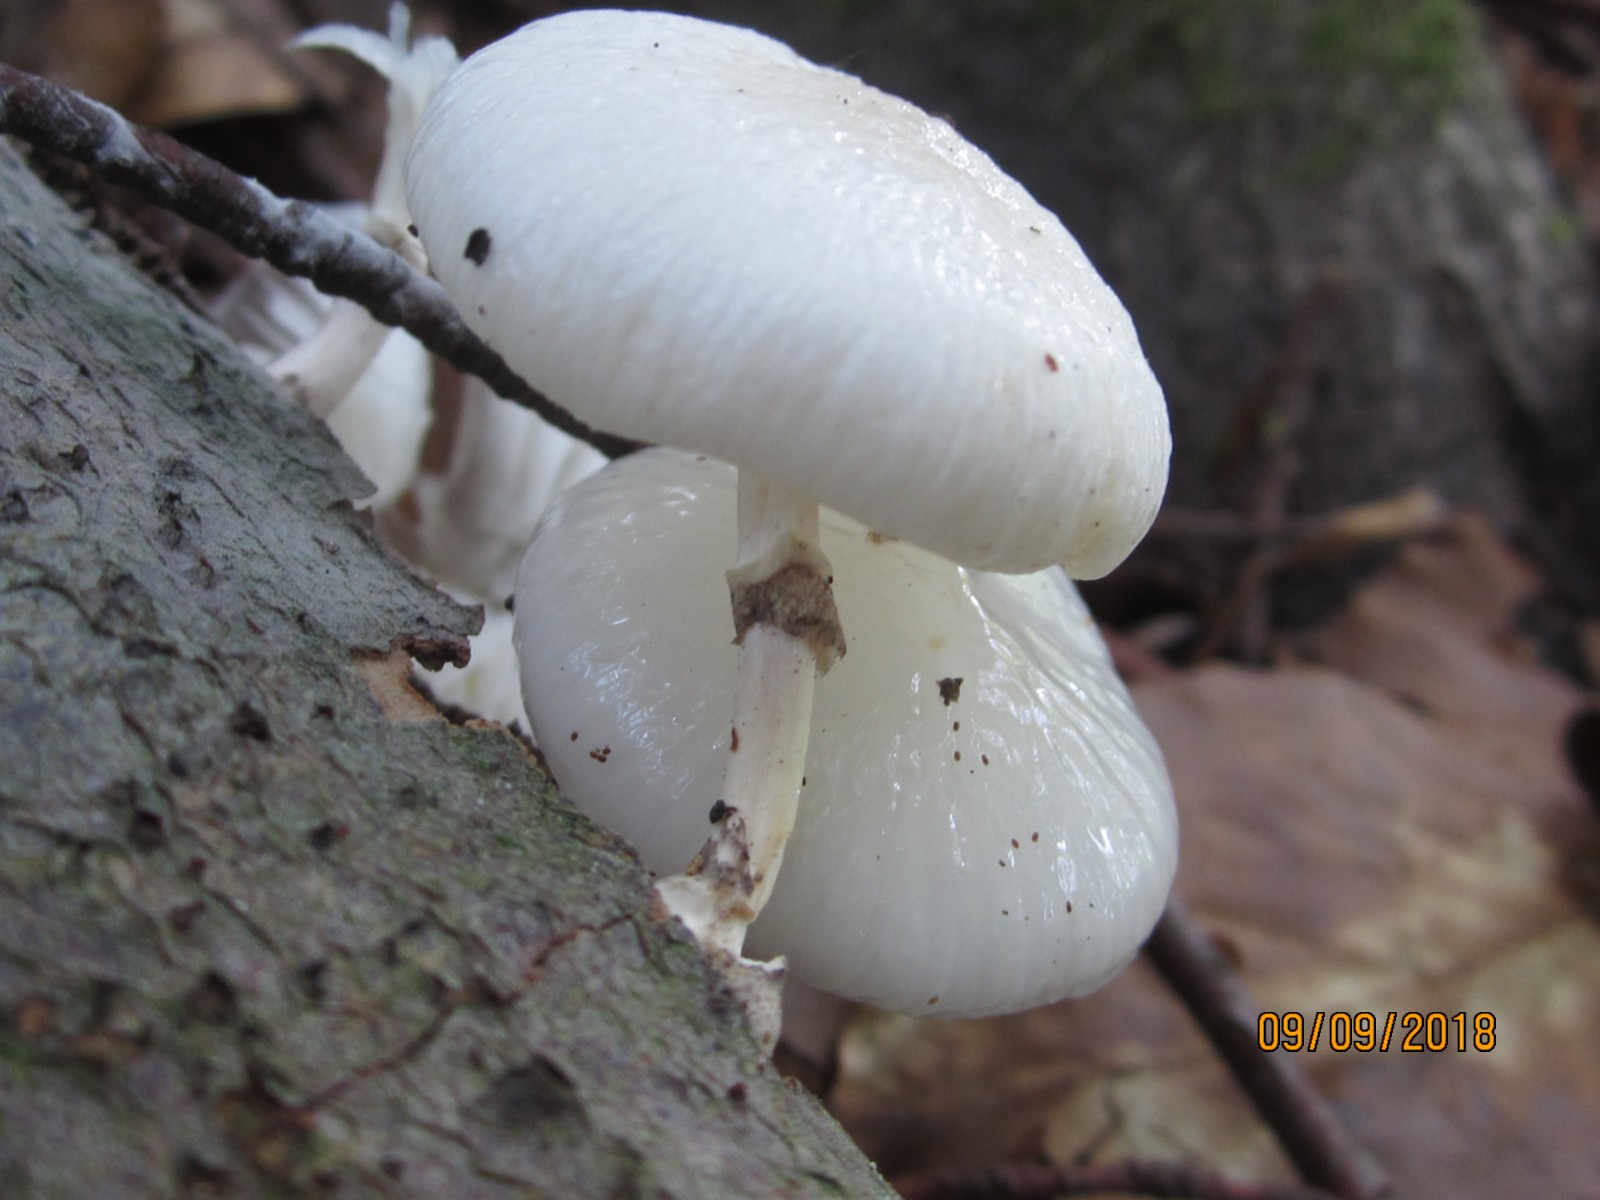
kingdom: Fungi
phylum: Basidiomycota
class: Agaricomycetes
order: Agaricales
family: Physalacriaceae
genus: Mucidula
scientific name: Mucidula mucida
